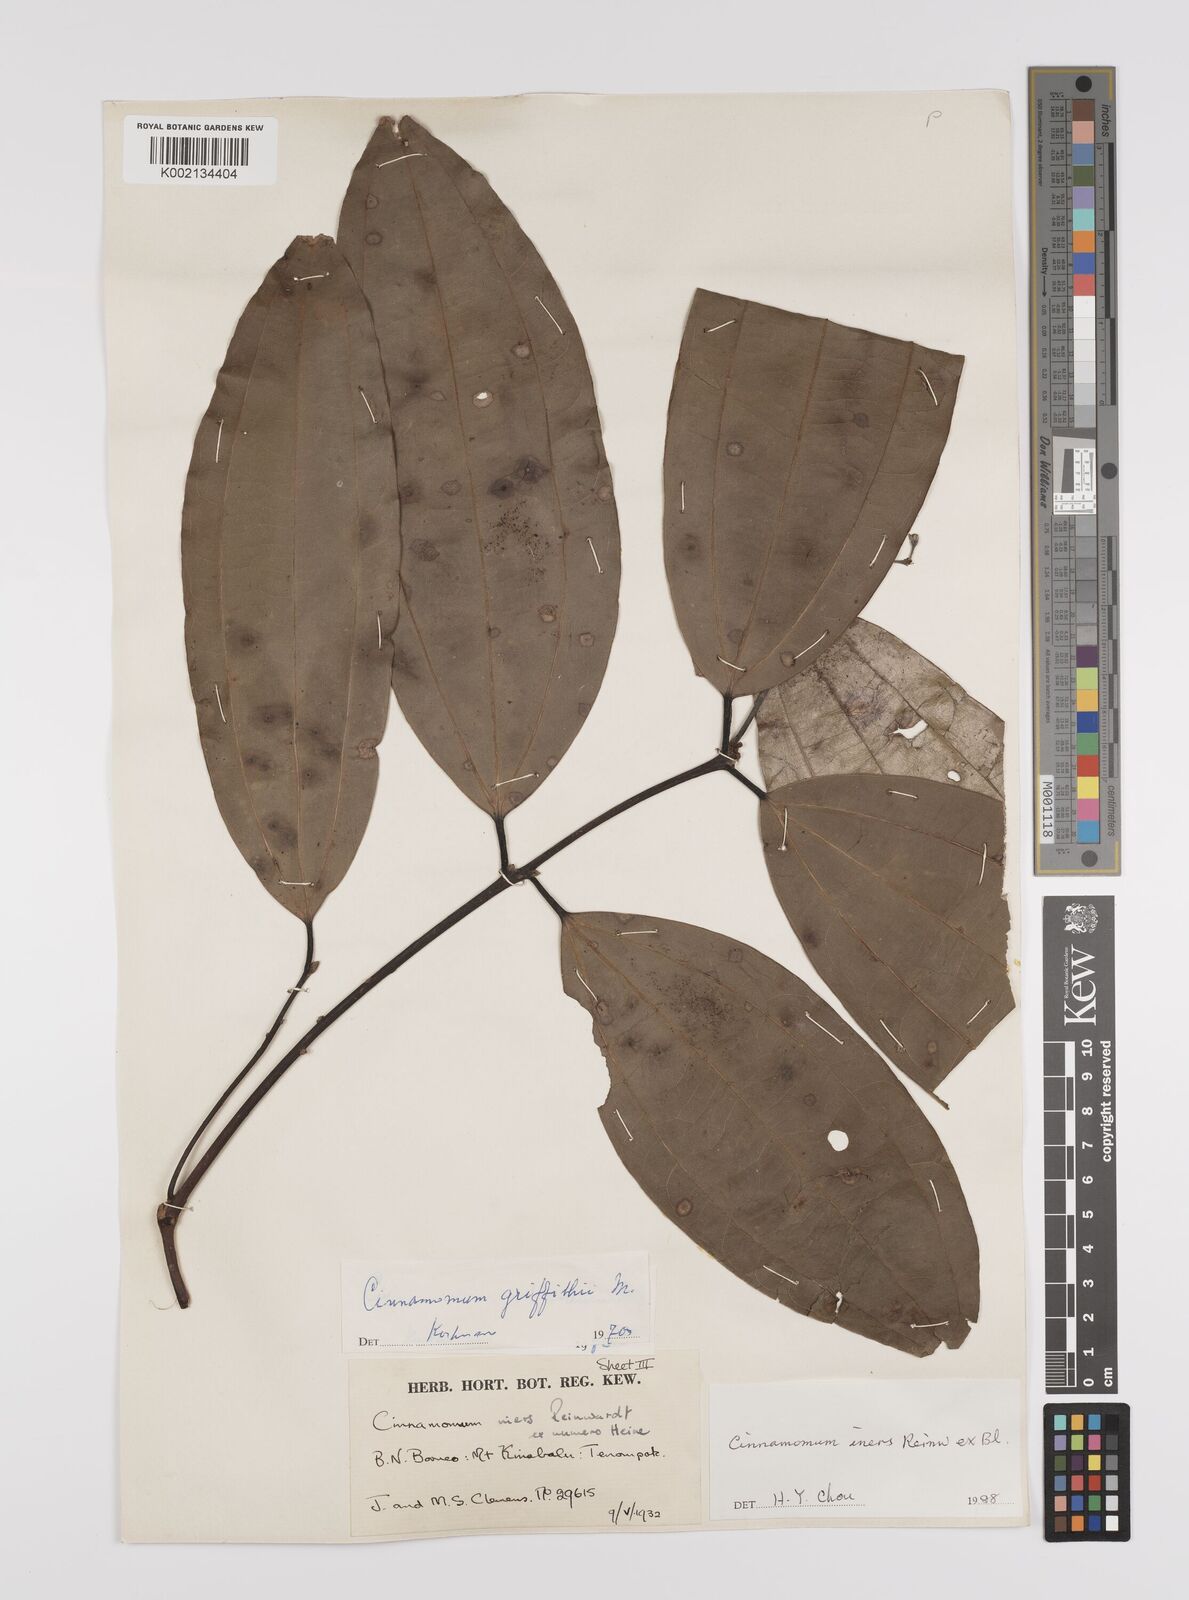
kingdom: Plantae
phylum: Tracheophyta
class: Magnoliopsida
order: Laurales
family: Lauraceae
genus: Cinnamomum
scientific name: Cinnamomum iners
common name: Wild cinnamon
